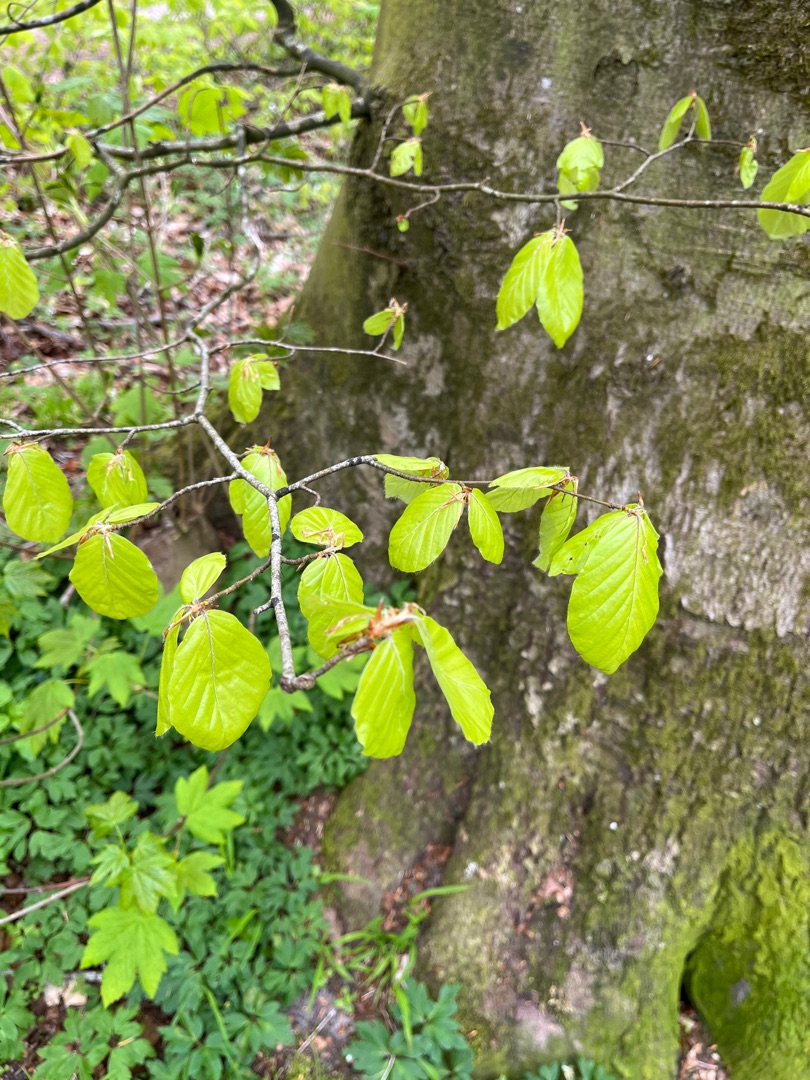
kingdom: Plantae
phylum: Tracheophyta
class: Magnoliopsida
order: Fagales
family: Fagaceae
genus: Fagus
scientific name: Fagus sylvatica
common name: Bøg
